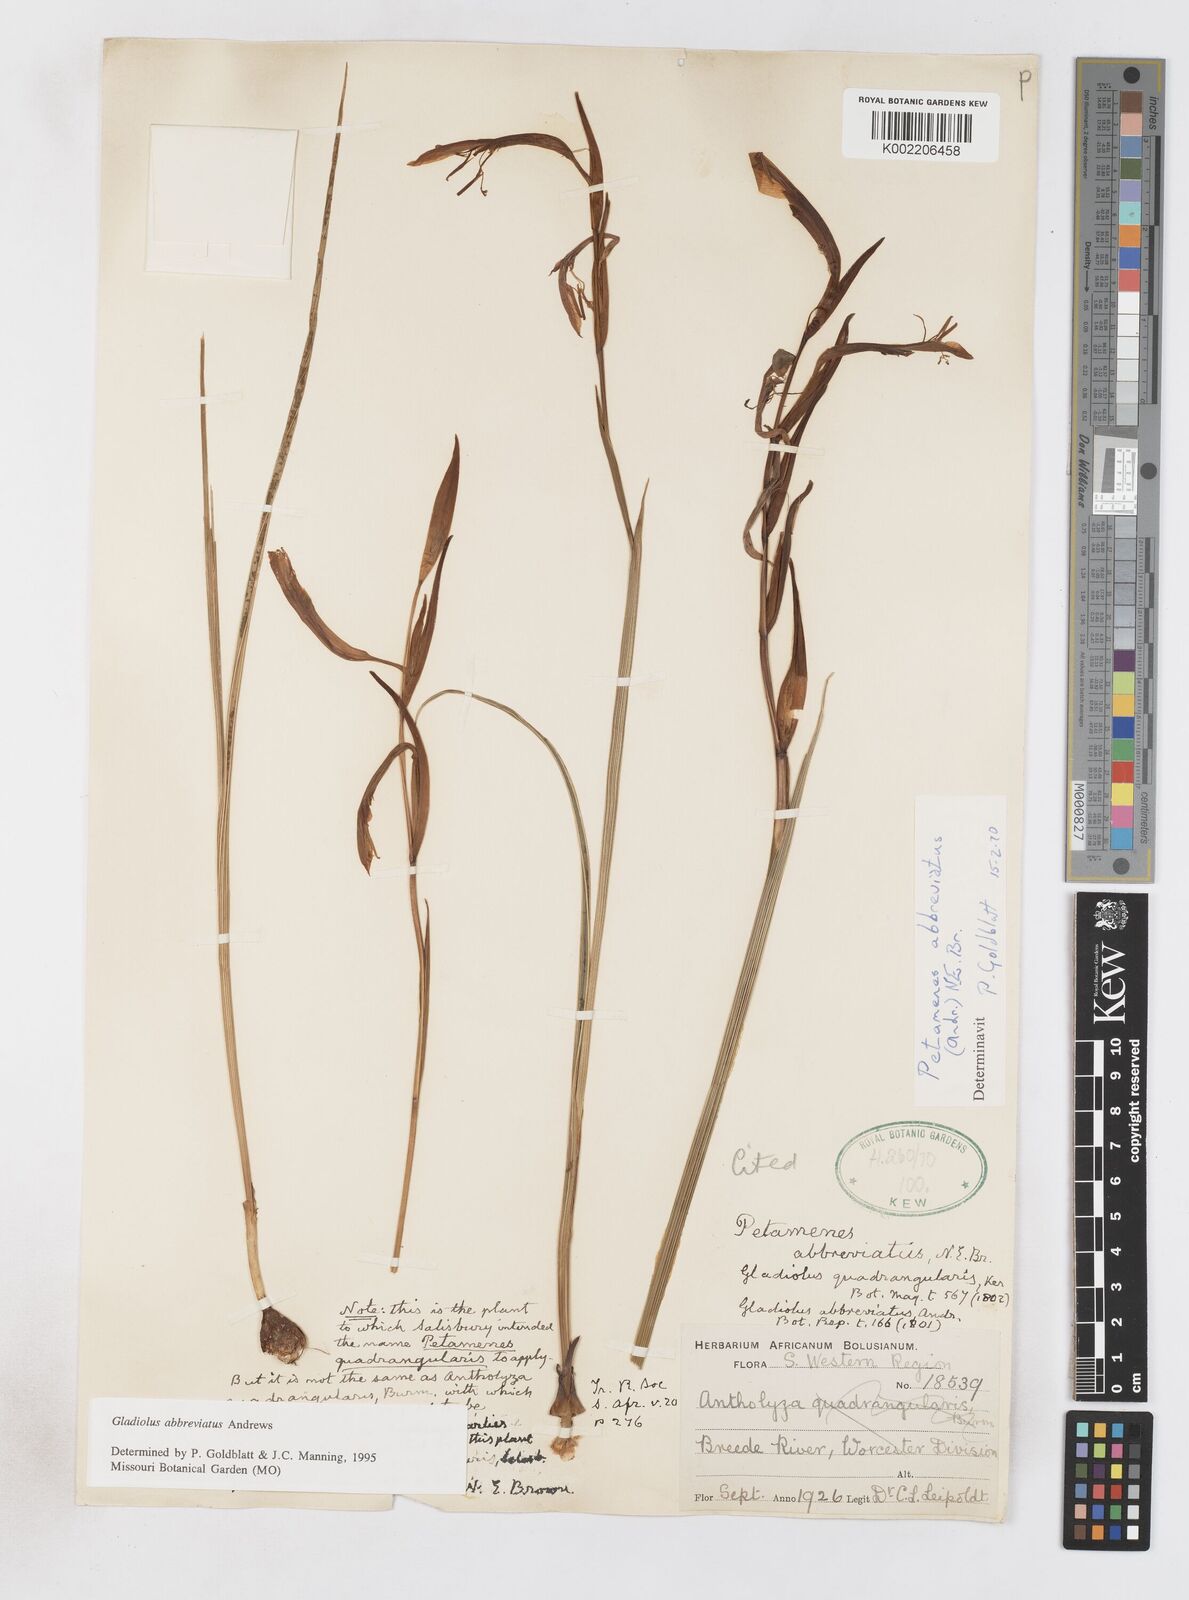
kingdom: Plantae
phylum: Tracheophyta
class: Liliopsida
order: Asparagales
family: Iridaceae
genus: Gladiolus
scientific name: Gladiolus abbreviatus
